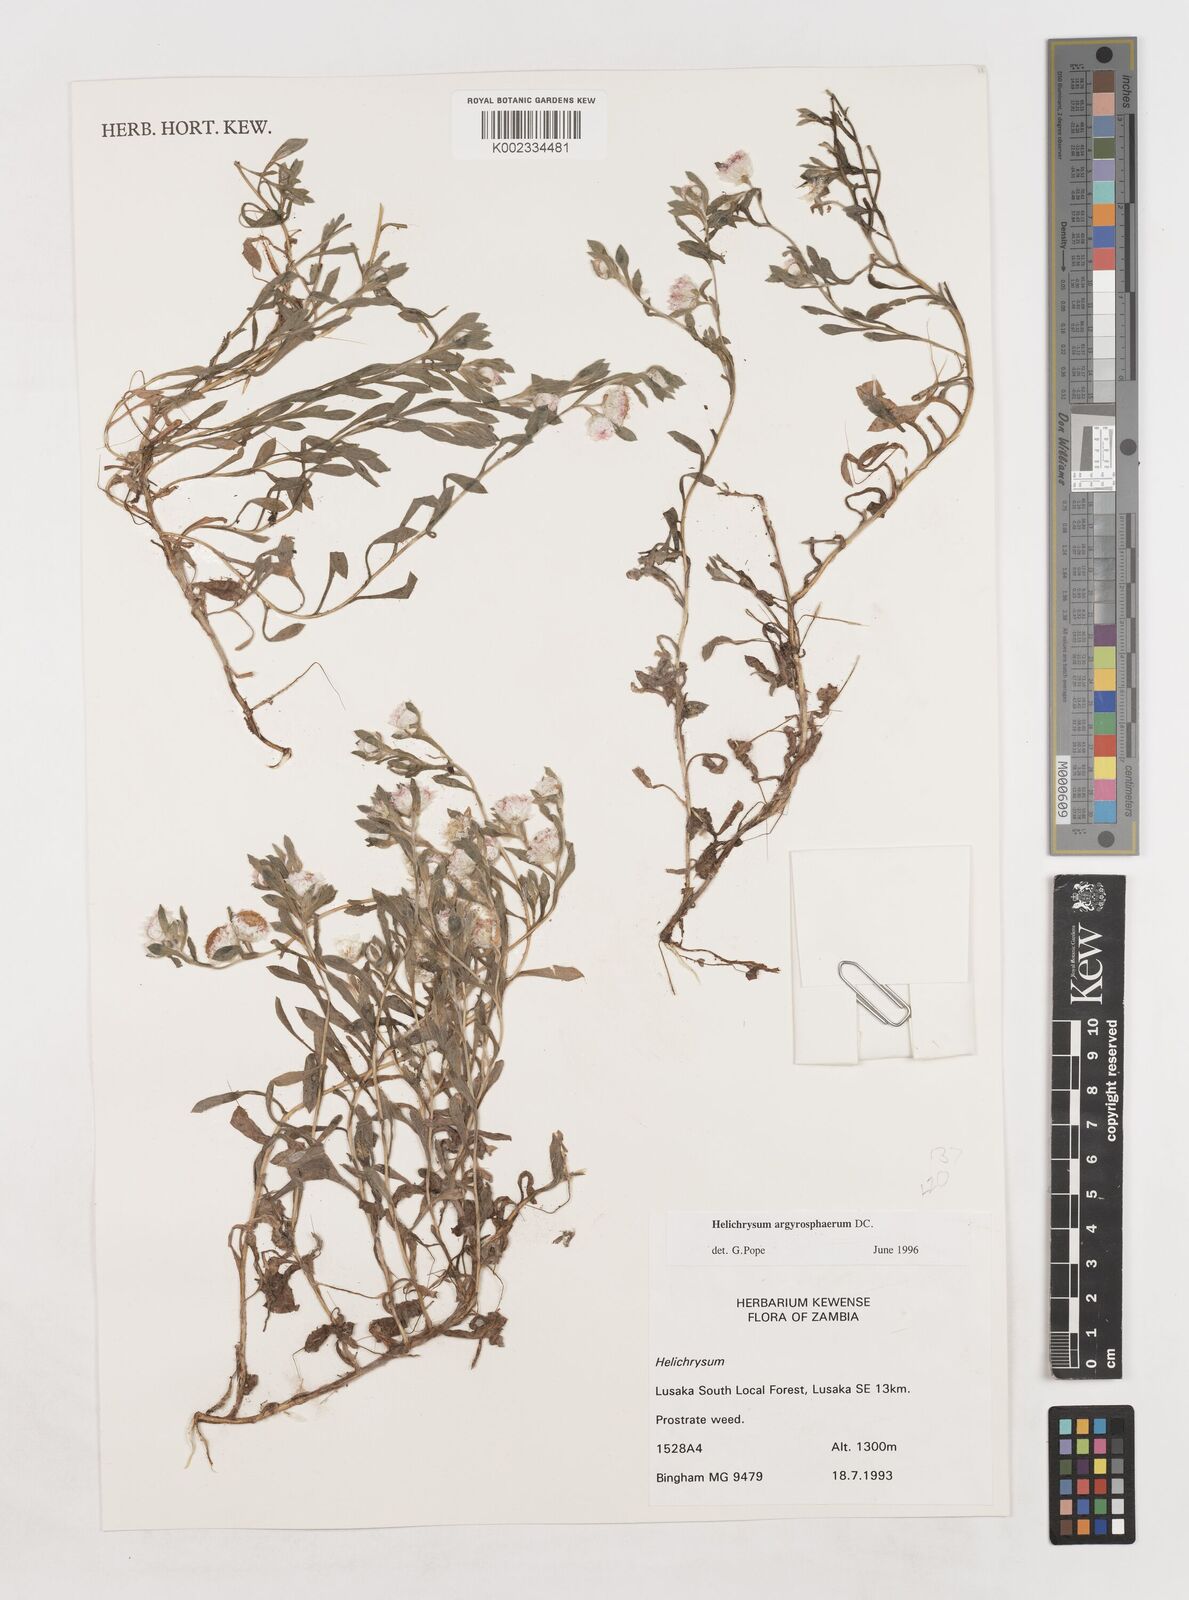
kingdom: Plantae
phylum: Tracheophyta
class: Magnoliopsida
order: Asterales
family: Asteraceae
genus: Helichrysum
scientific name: Helichrysum argyrosphaerum
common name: Wild everlasting
